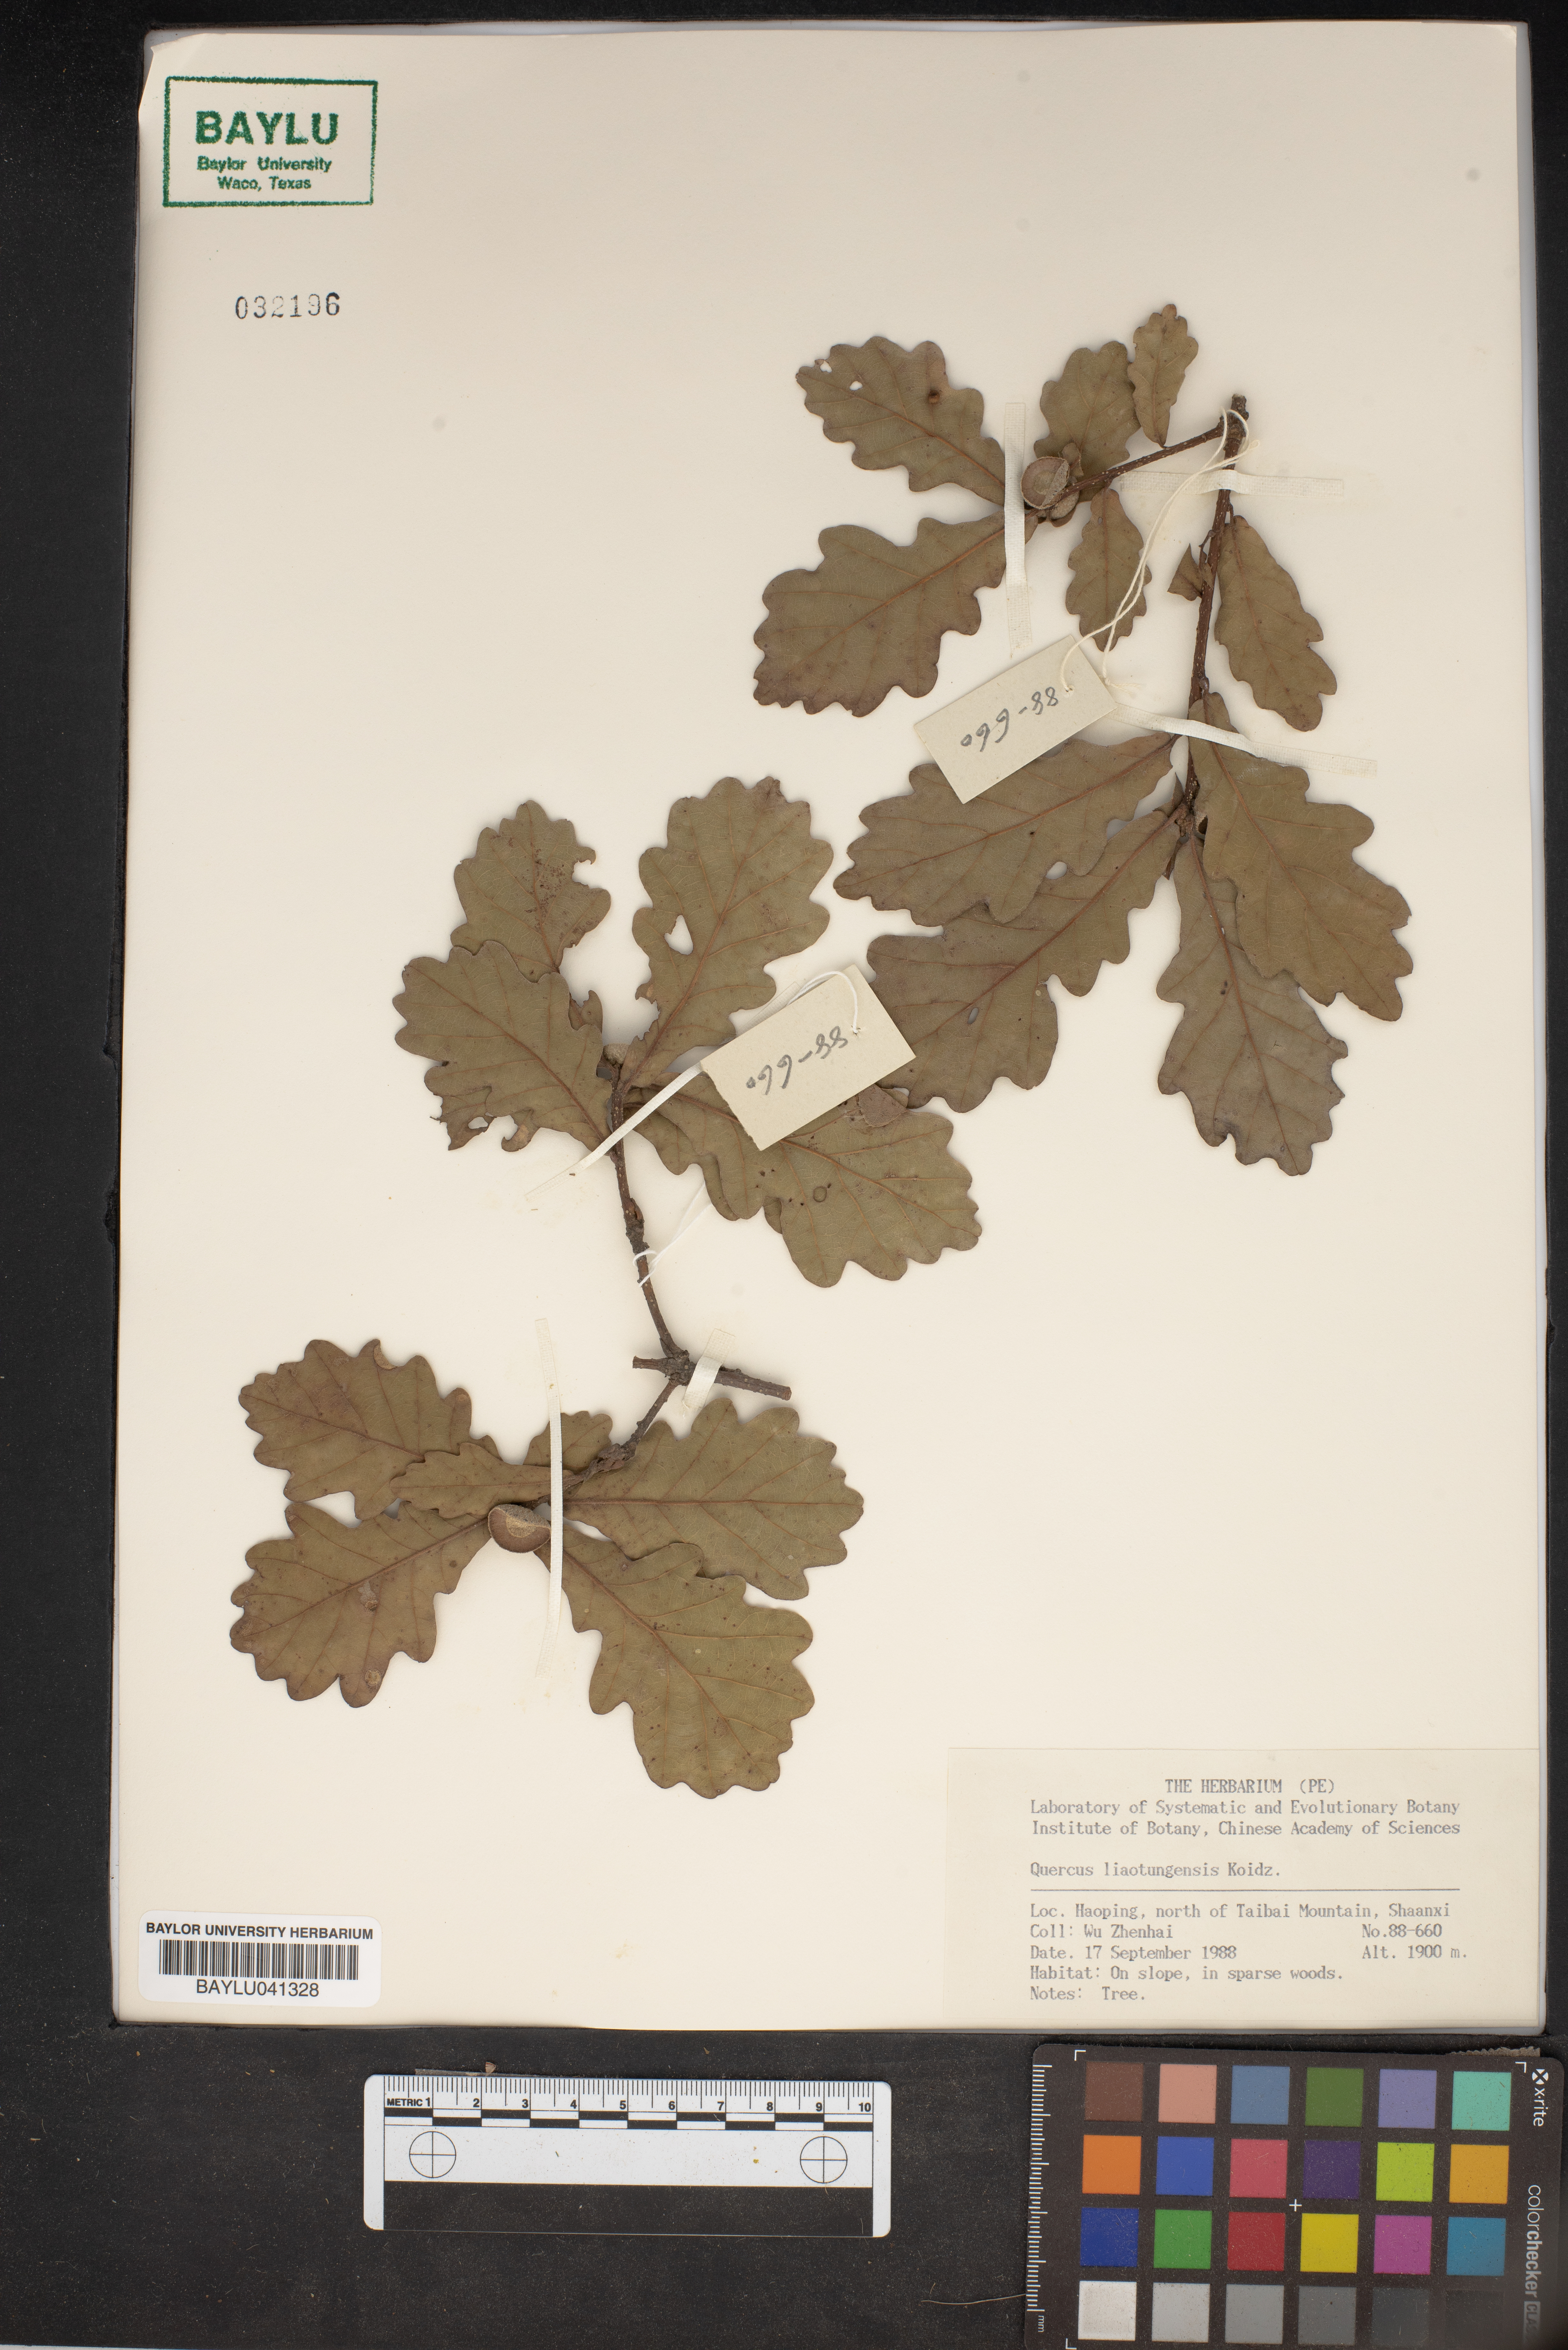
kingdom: Plantae
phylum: Tracheophyta
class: Magnoliopsida
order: Fagales
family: Fagaceae
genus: Quercus
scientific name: Quercus mongolica
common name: Mongolian oak
